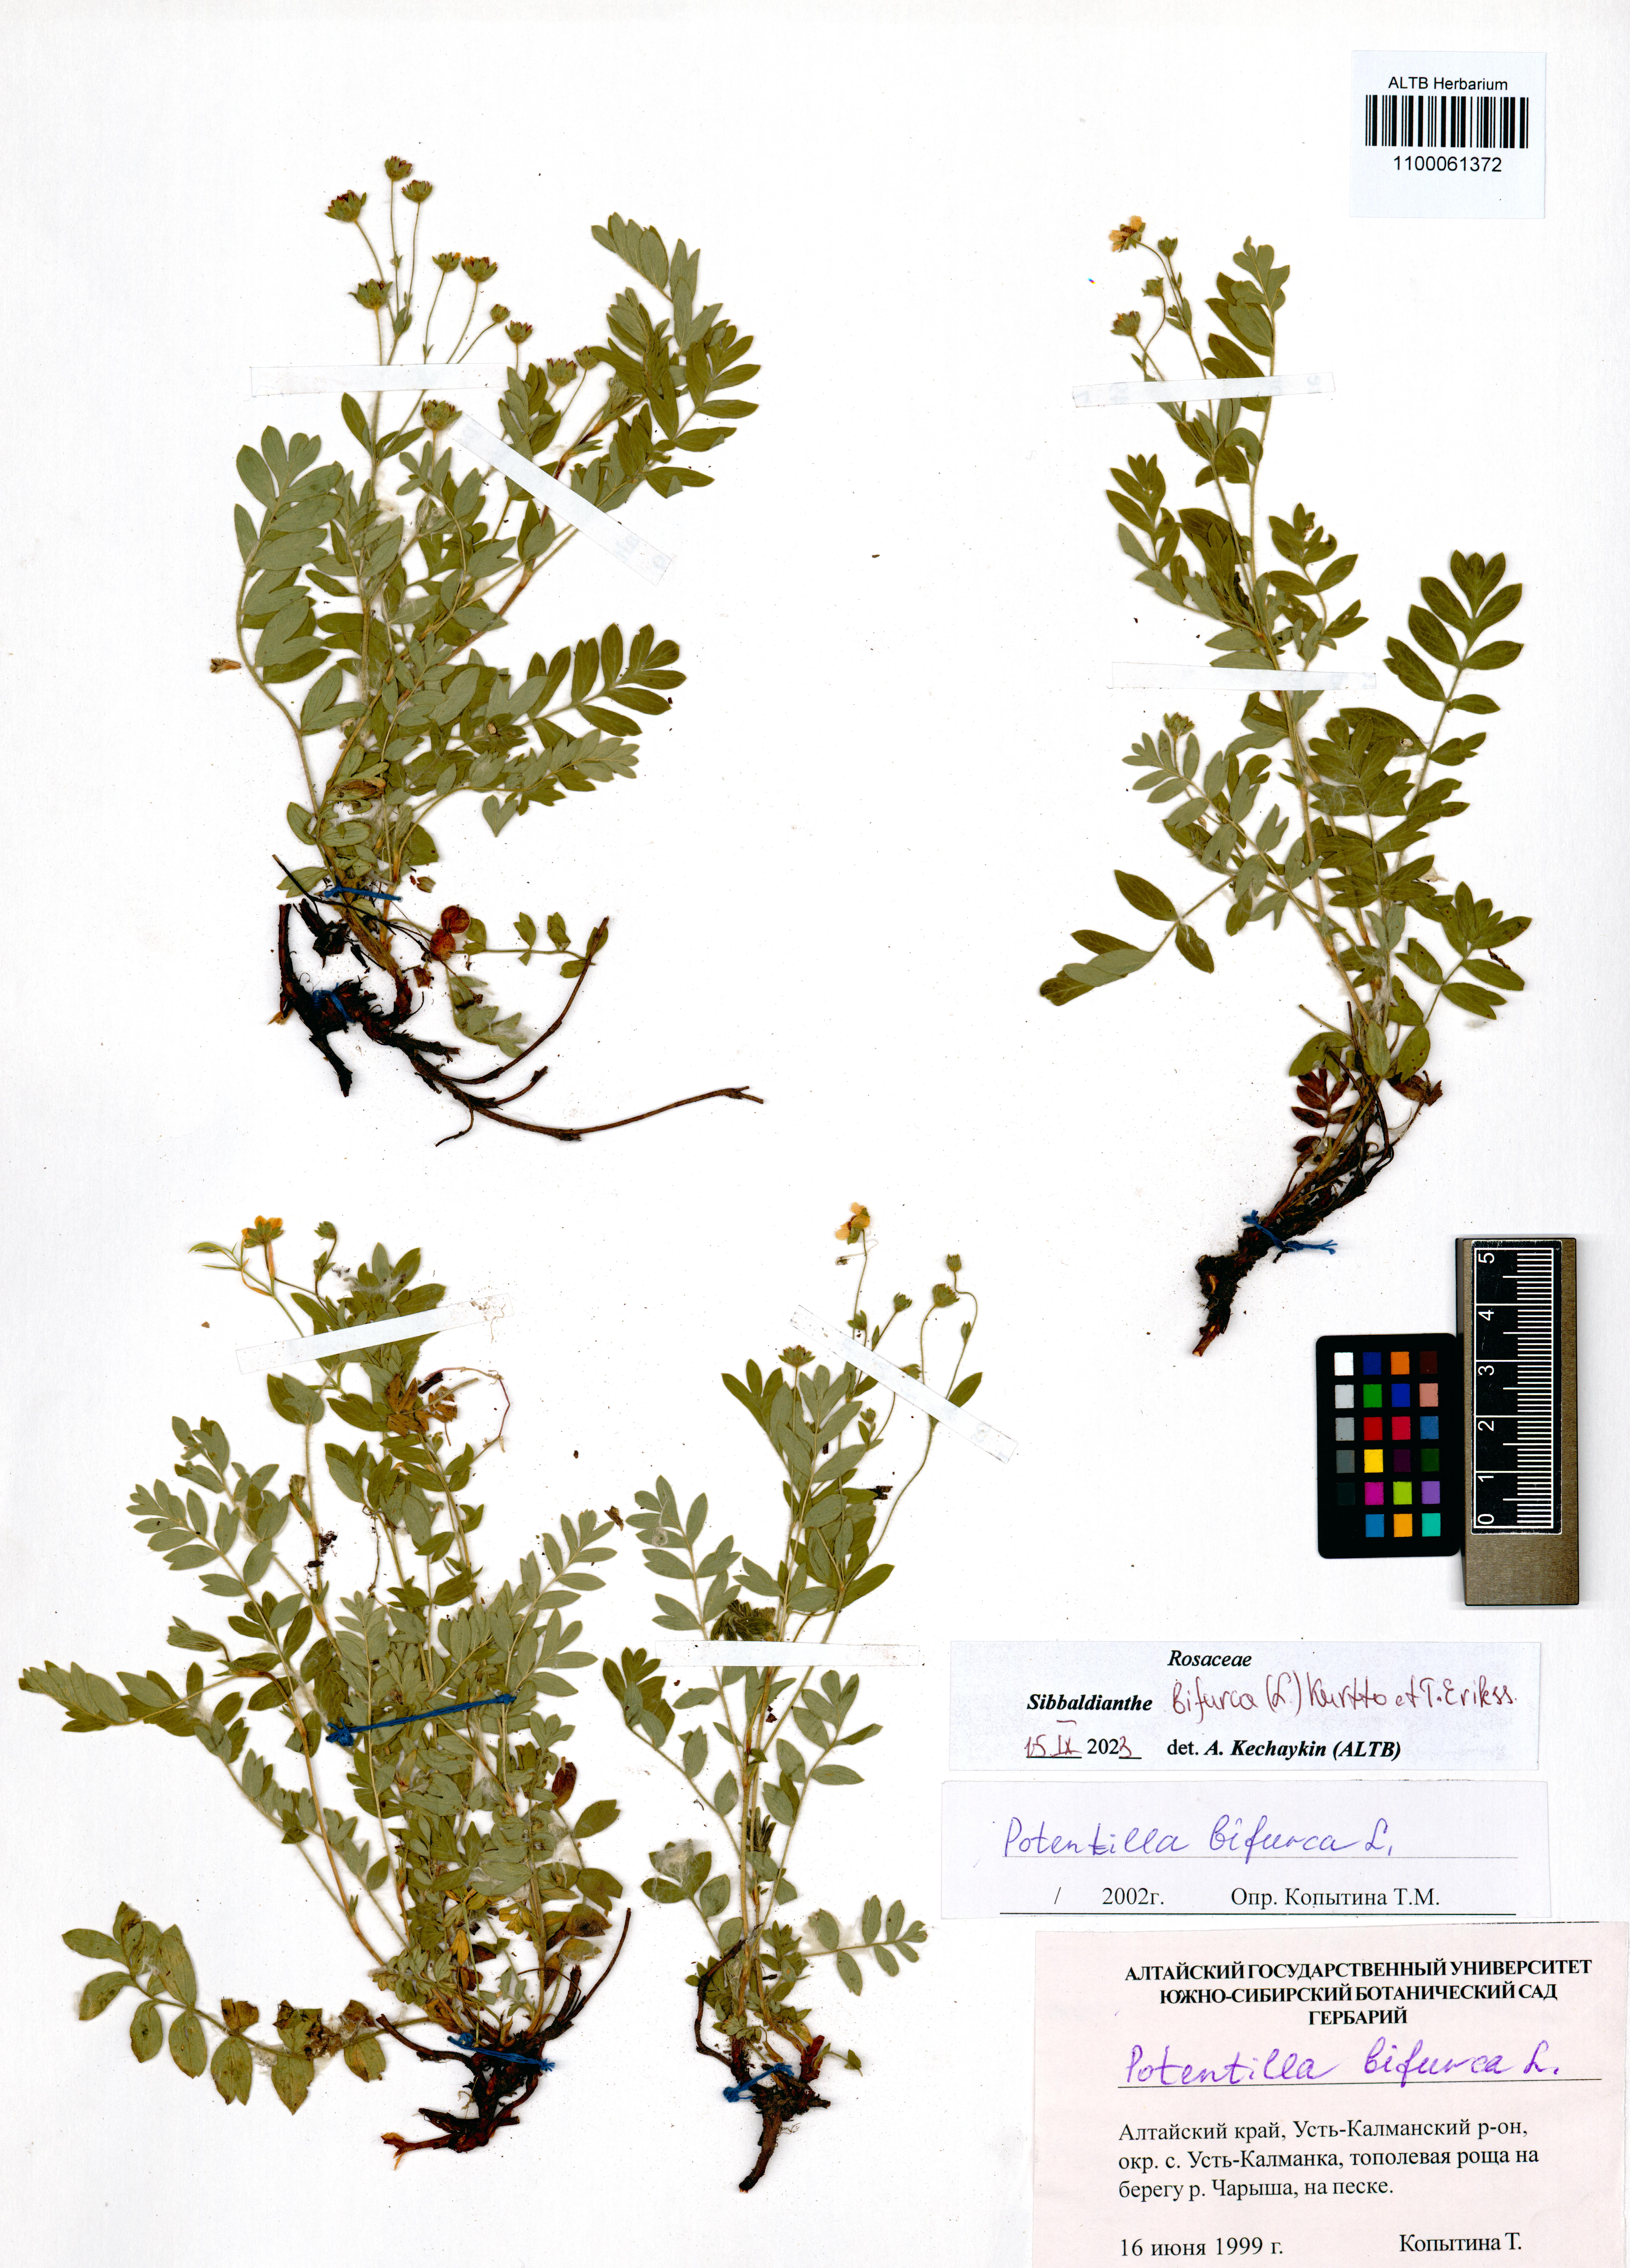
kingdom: Plantae
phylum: Tracheophyta
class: Magnoliopsida
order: Rosales
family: Rosaceae
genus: Sibbaldianthe
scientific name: Sibbaldianthe bifurca
